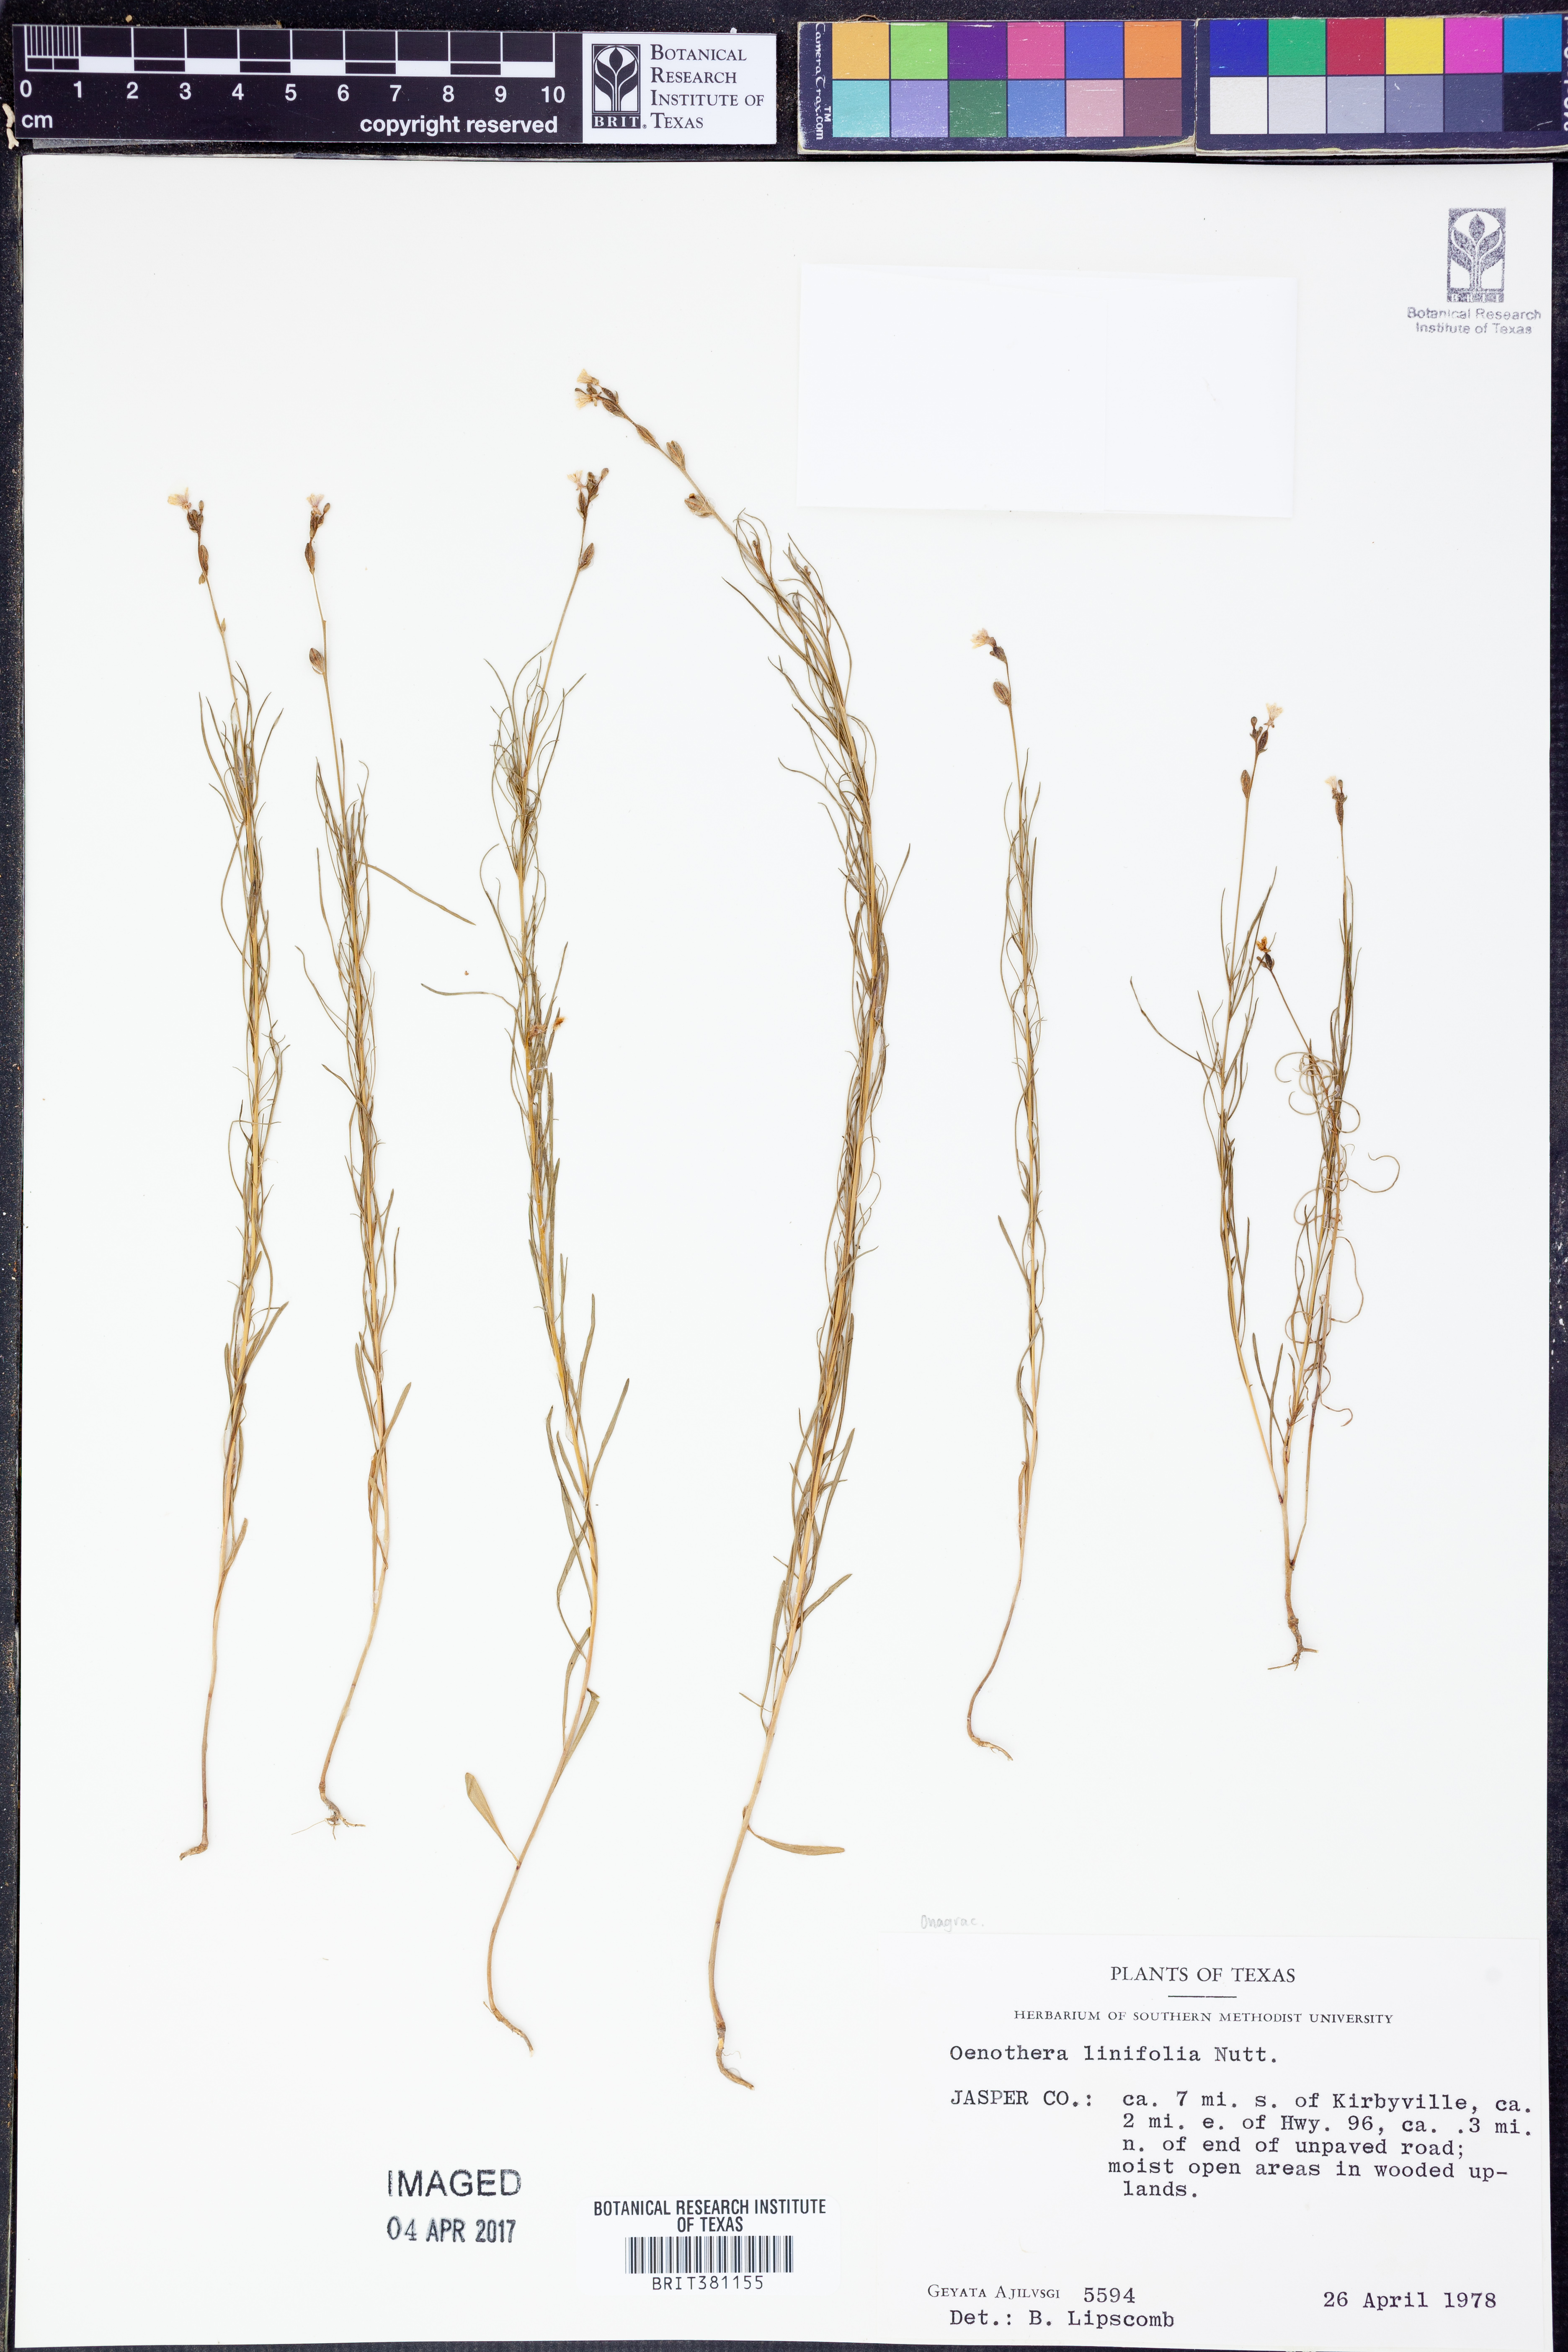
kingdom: Plantae
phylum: Tracheophyta
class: Magnoliopsida
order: Myrtales
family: Onagraceae
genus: Oenothera
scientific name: Oenothera linifolia
